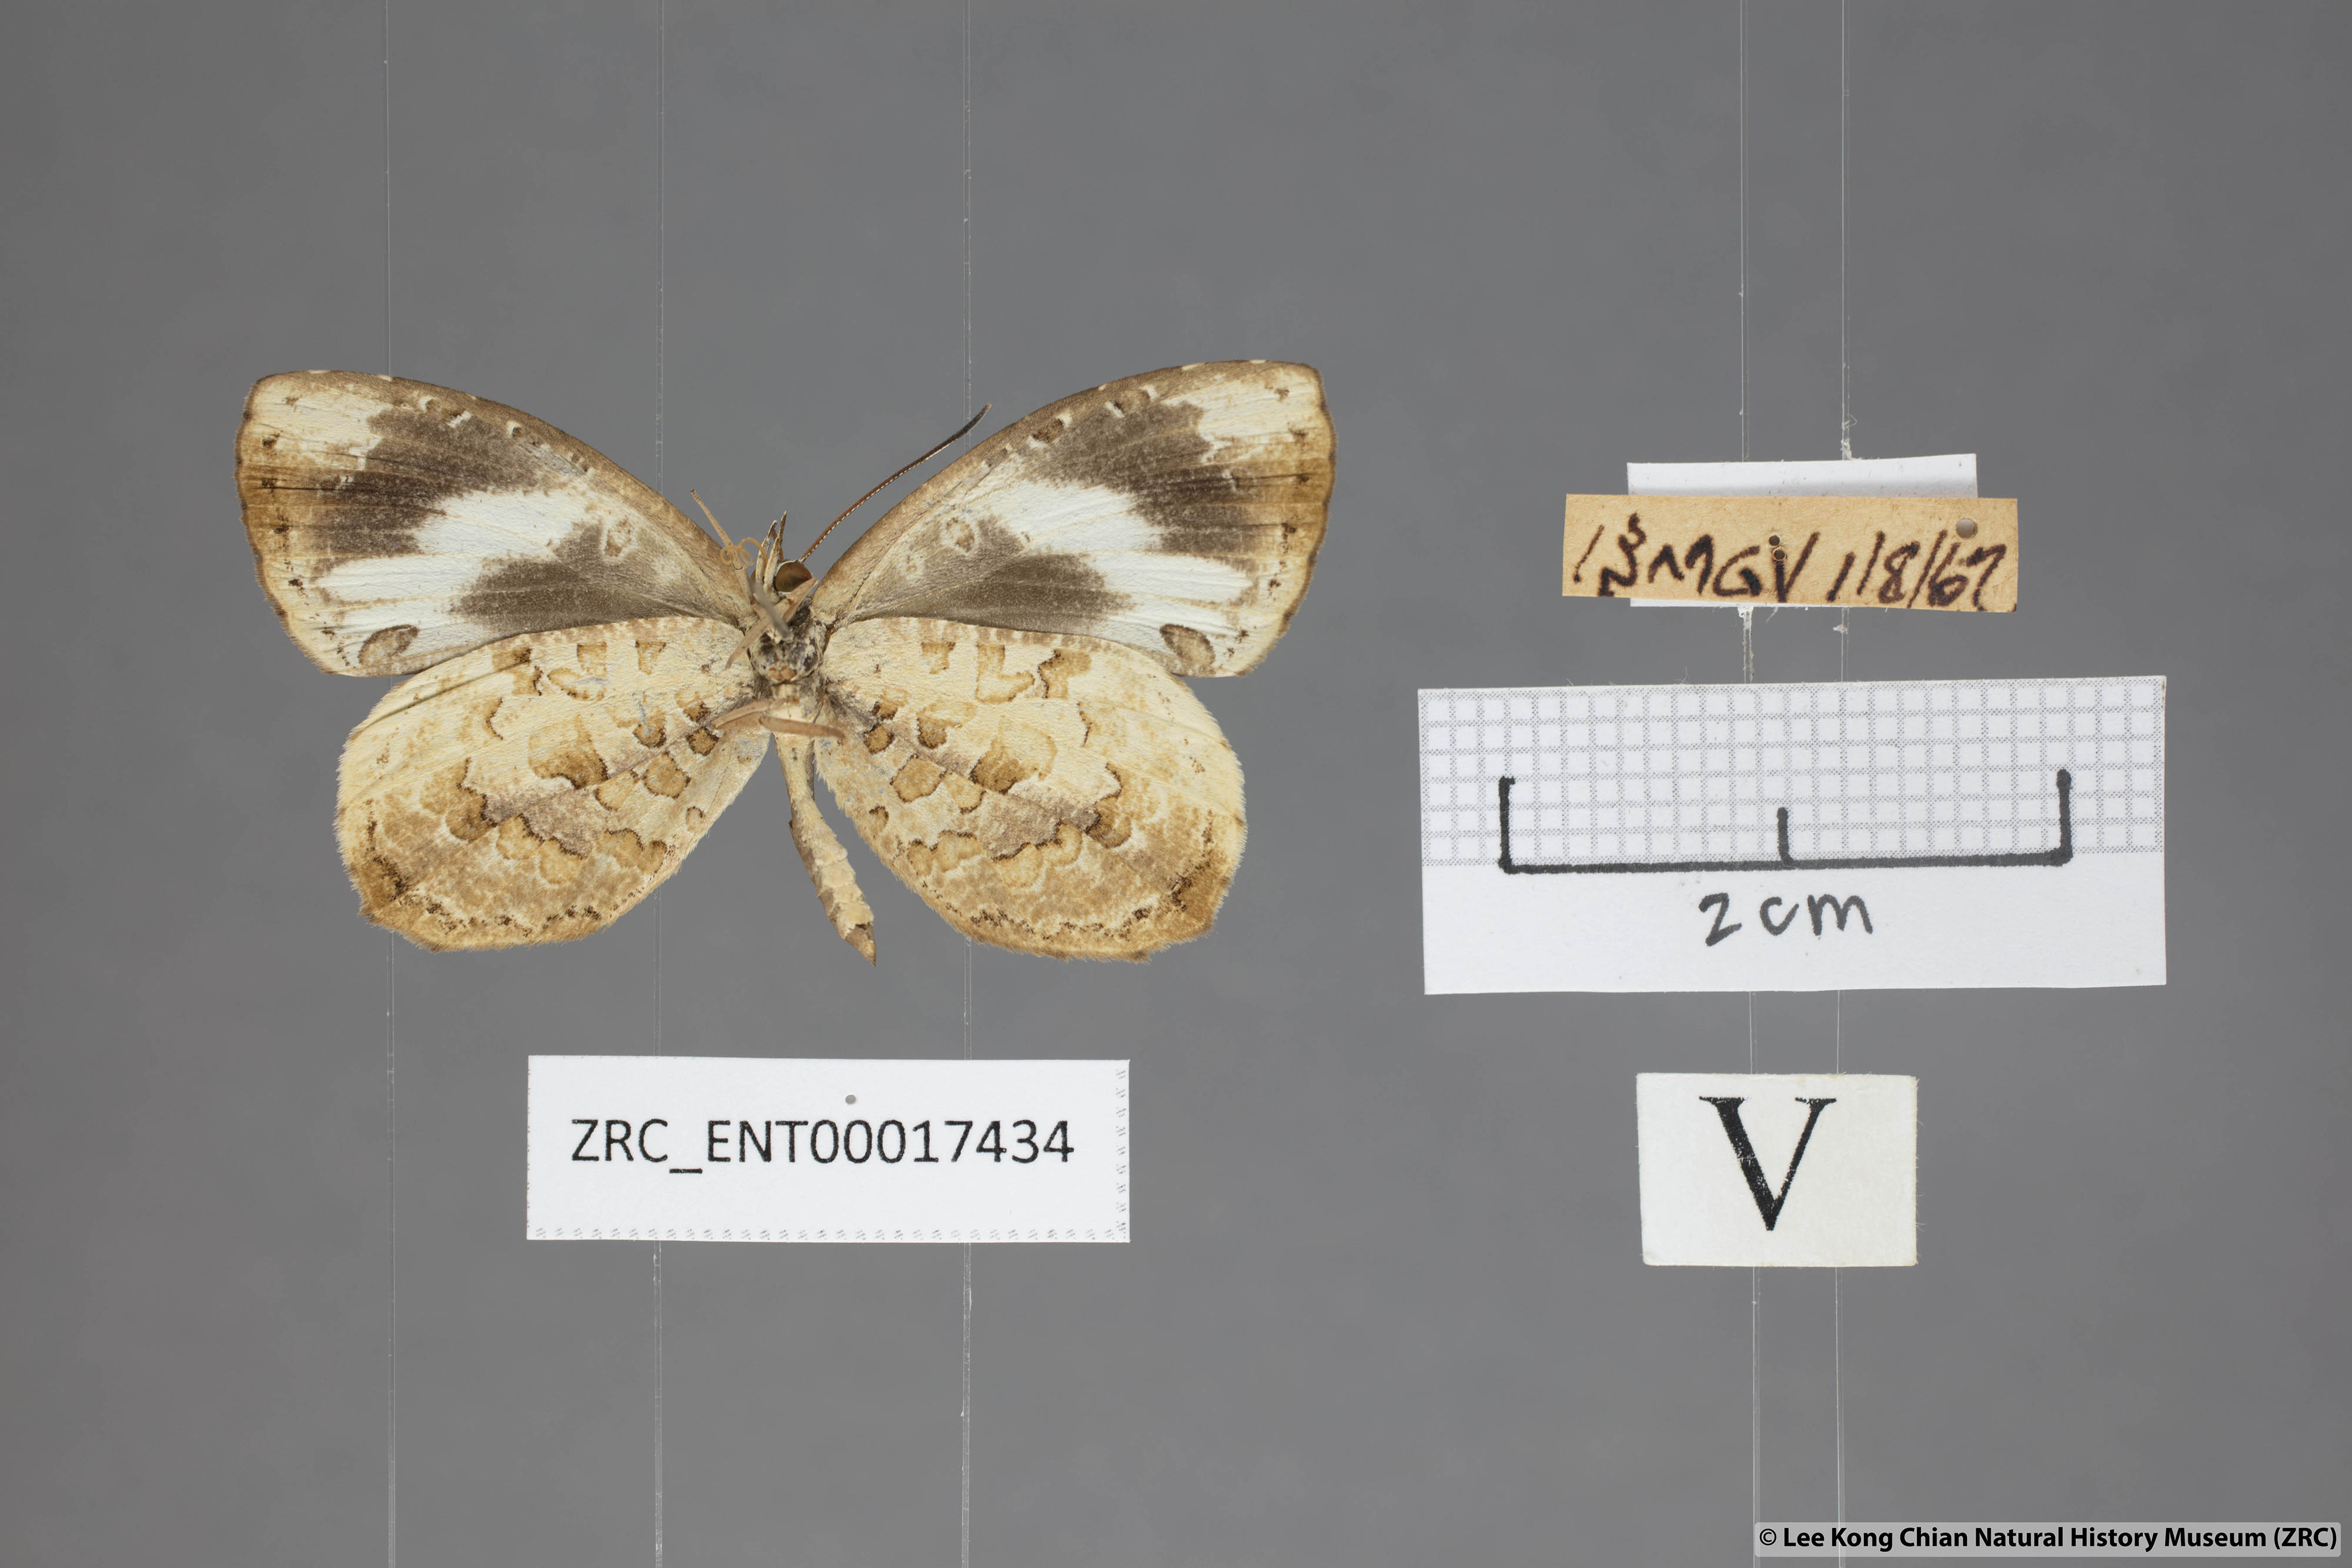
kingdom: Animalia
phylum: Arthropoda
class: Insecta
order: Lepidoptera
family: Lycaenidae
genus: Miletus
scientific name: Miletus gallus
